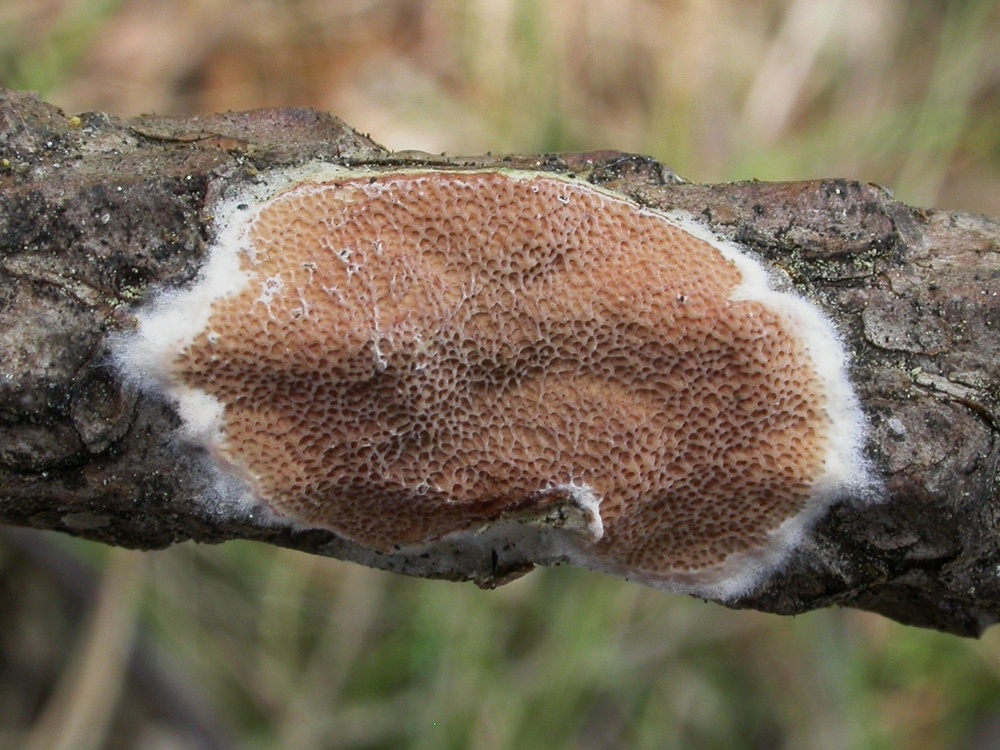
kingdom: Fungi
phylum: Basidiomycota
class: Agaricomycetes
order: Polyporales
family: Irpicaceae
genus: Meruliopsis
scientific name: Meruliopsis taxicola
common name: purpurbrun foldporesvamp
